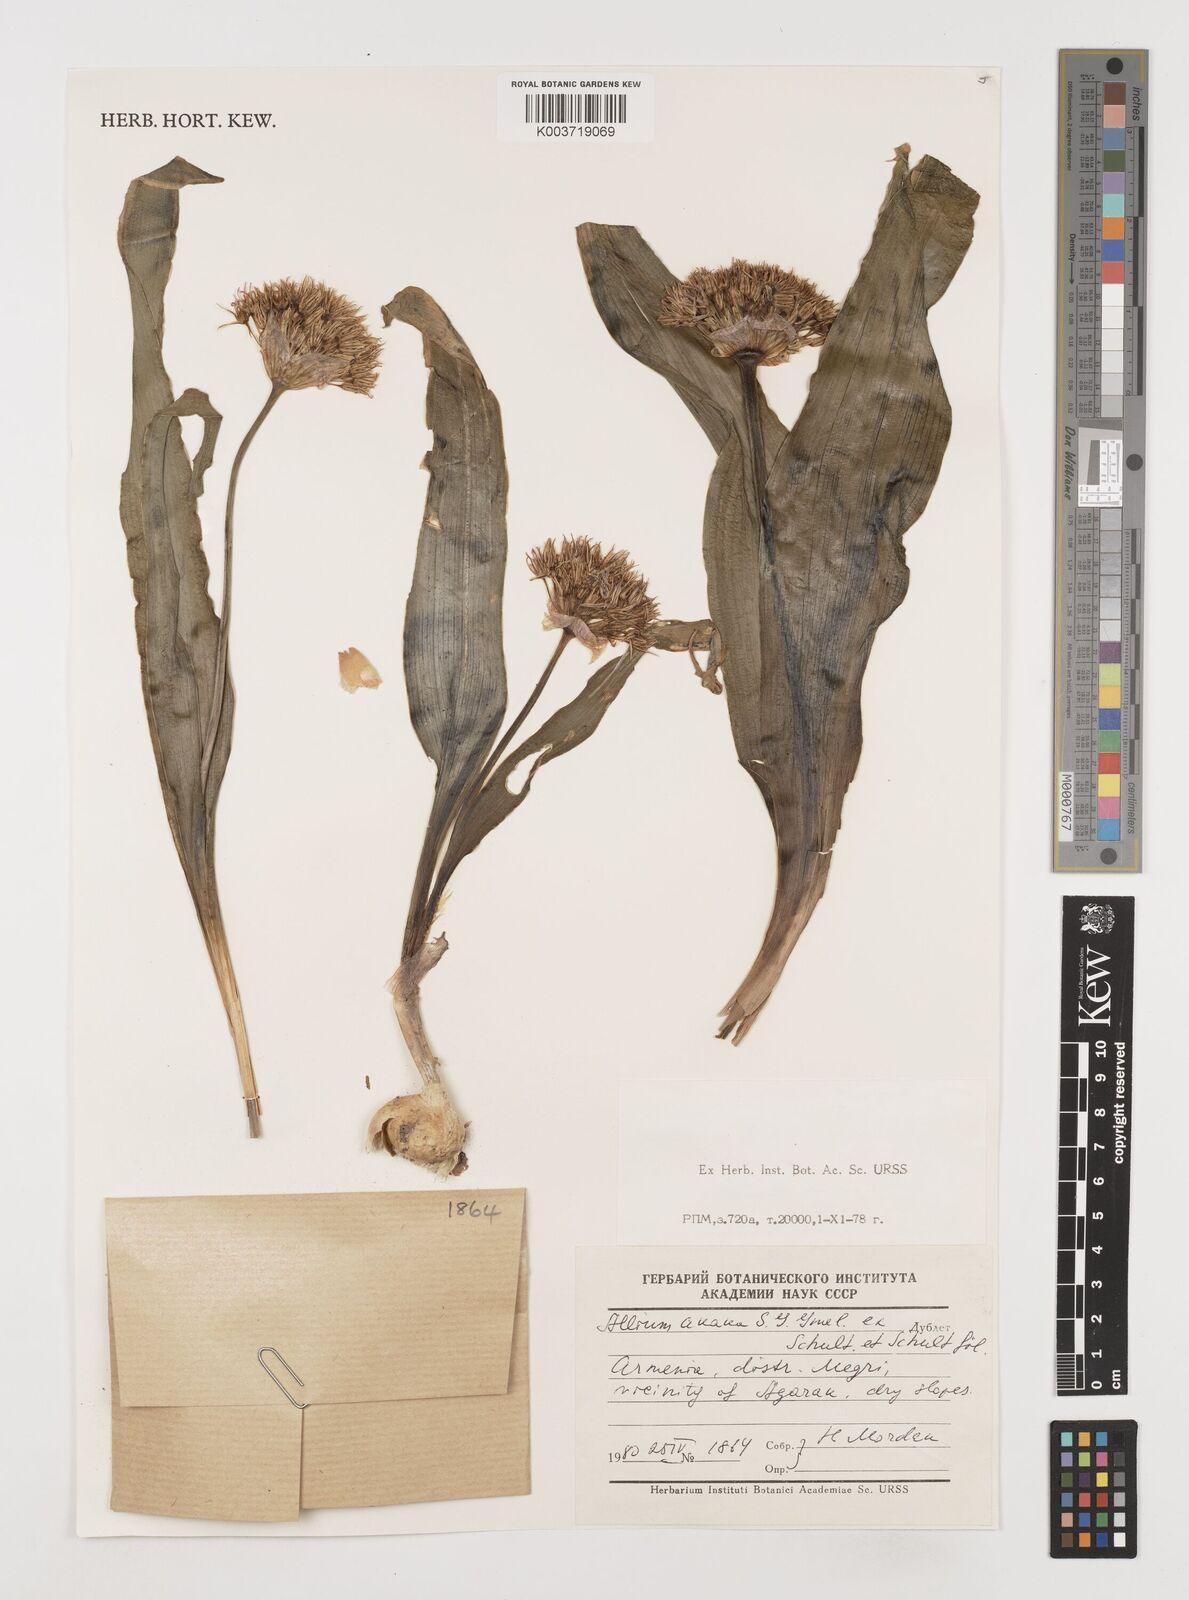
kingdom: Plantae
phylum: Tracheophyta
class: Liliopsida
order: Asparagales
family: Amaryllidaceae
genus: Allium
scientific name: Allium akaka
